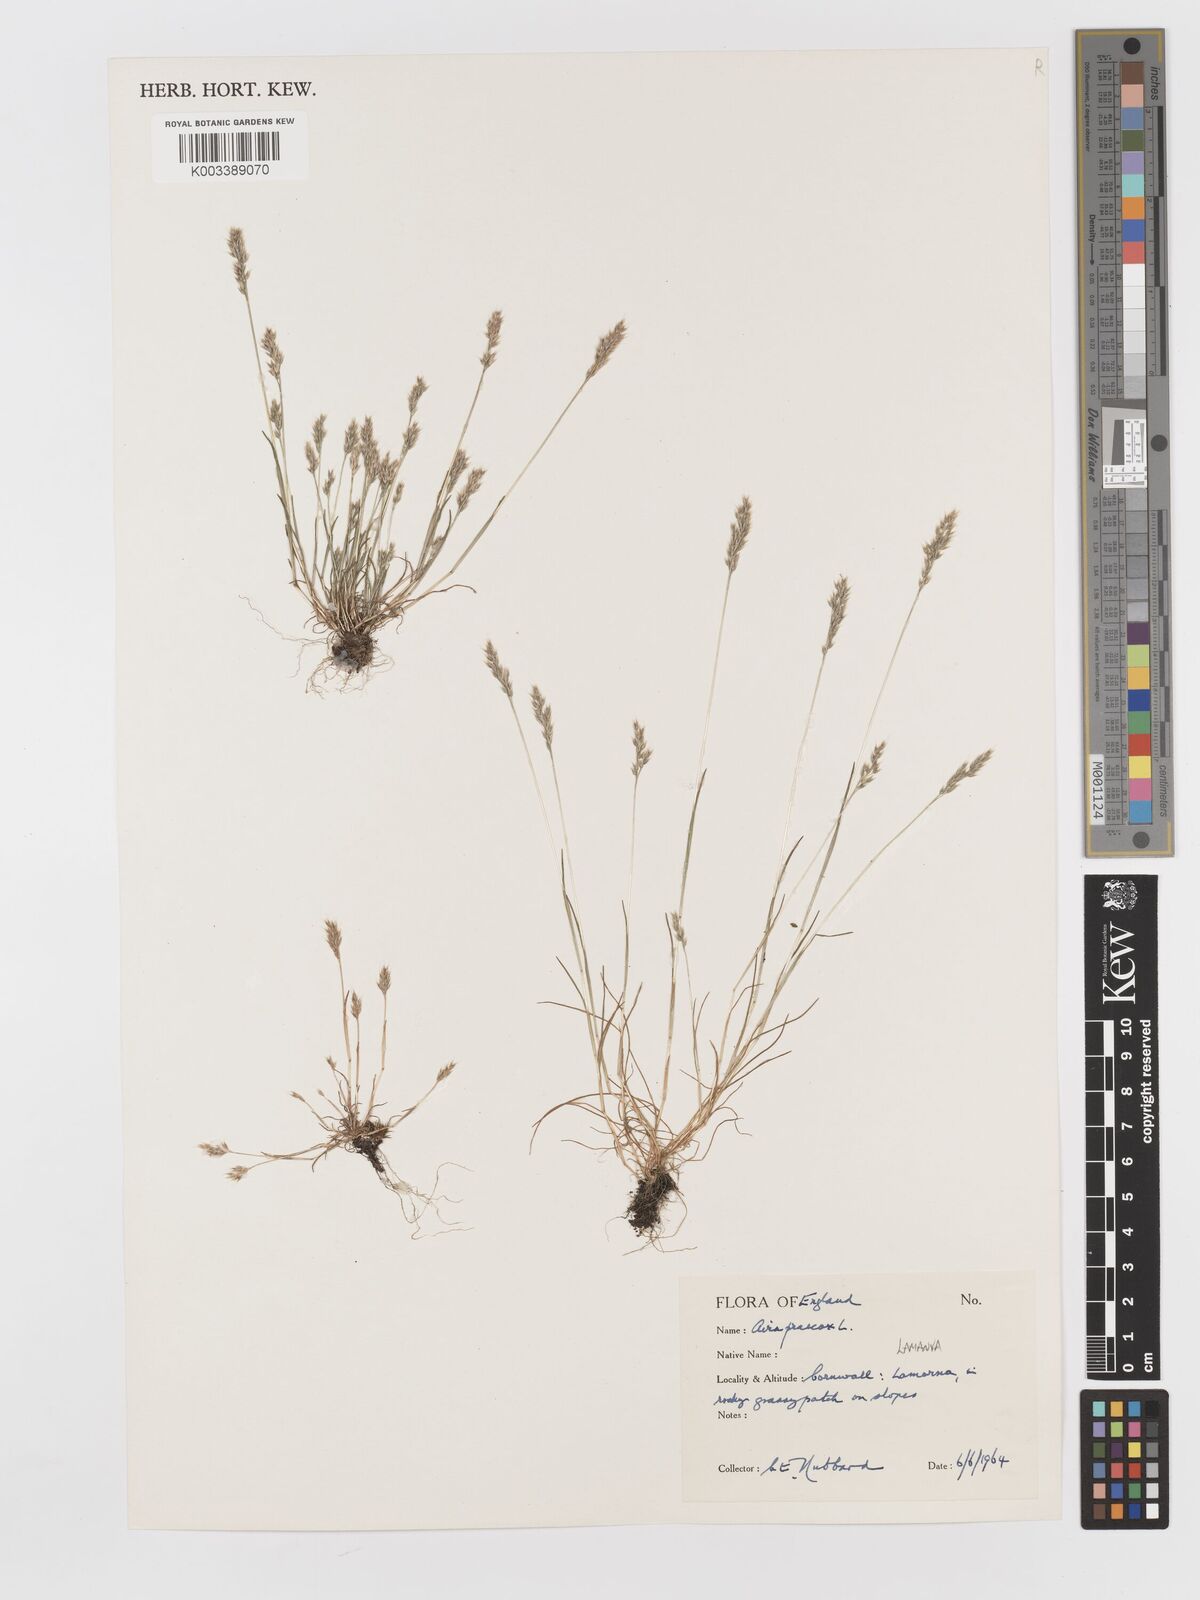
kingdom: Plantae
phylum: Tracheophyta
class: Liliopsida
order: Poales
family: Poaceae
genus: Aira
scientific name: Aira praecox
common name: Early hair-grass
